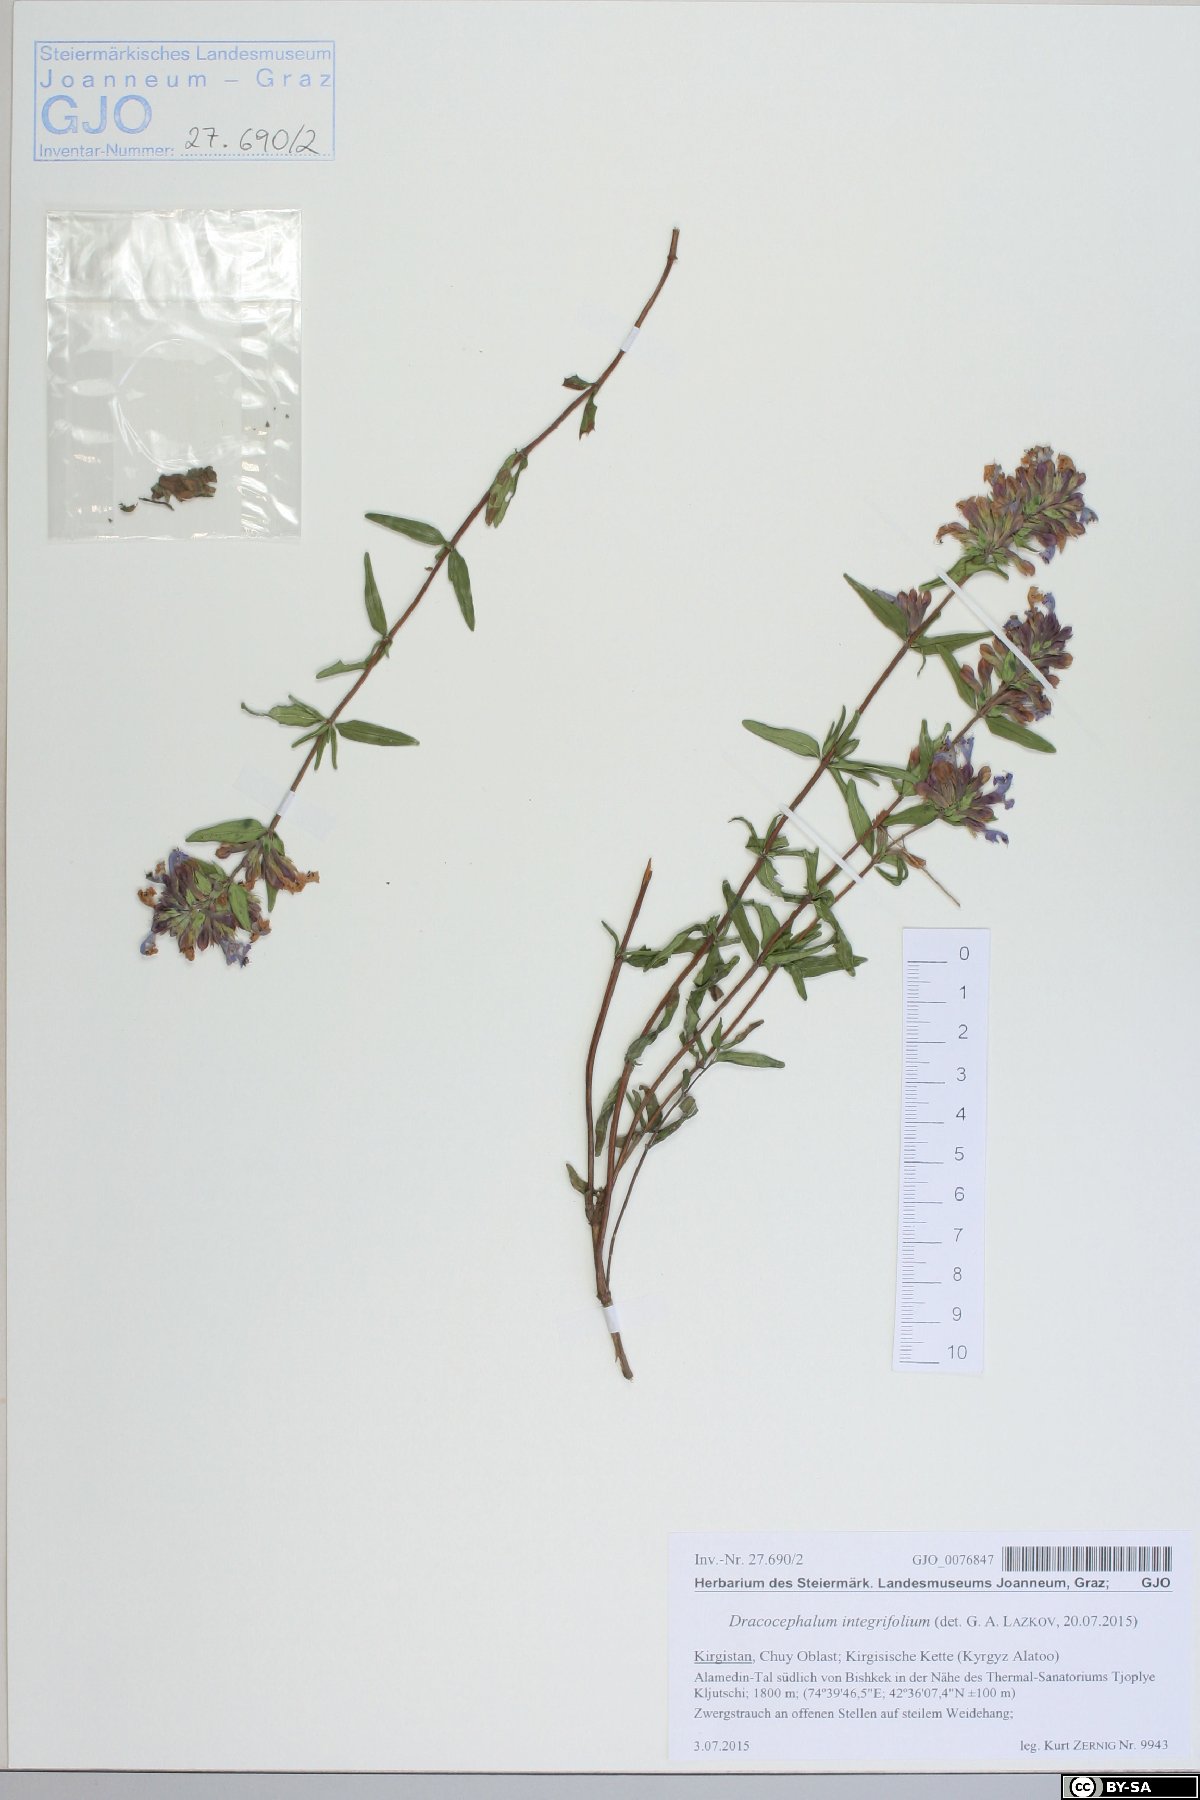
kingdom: Plantae
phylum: Tracheophyta
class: Magnoliopsida
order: Lamiales
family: Lamiaceae
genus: Dracocephalum
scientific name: Dracocephalum integrifolium
